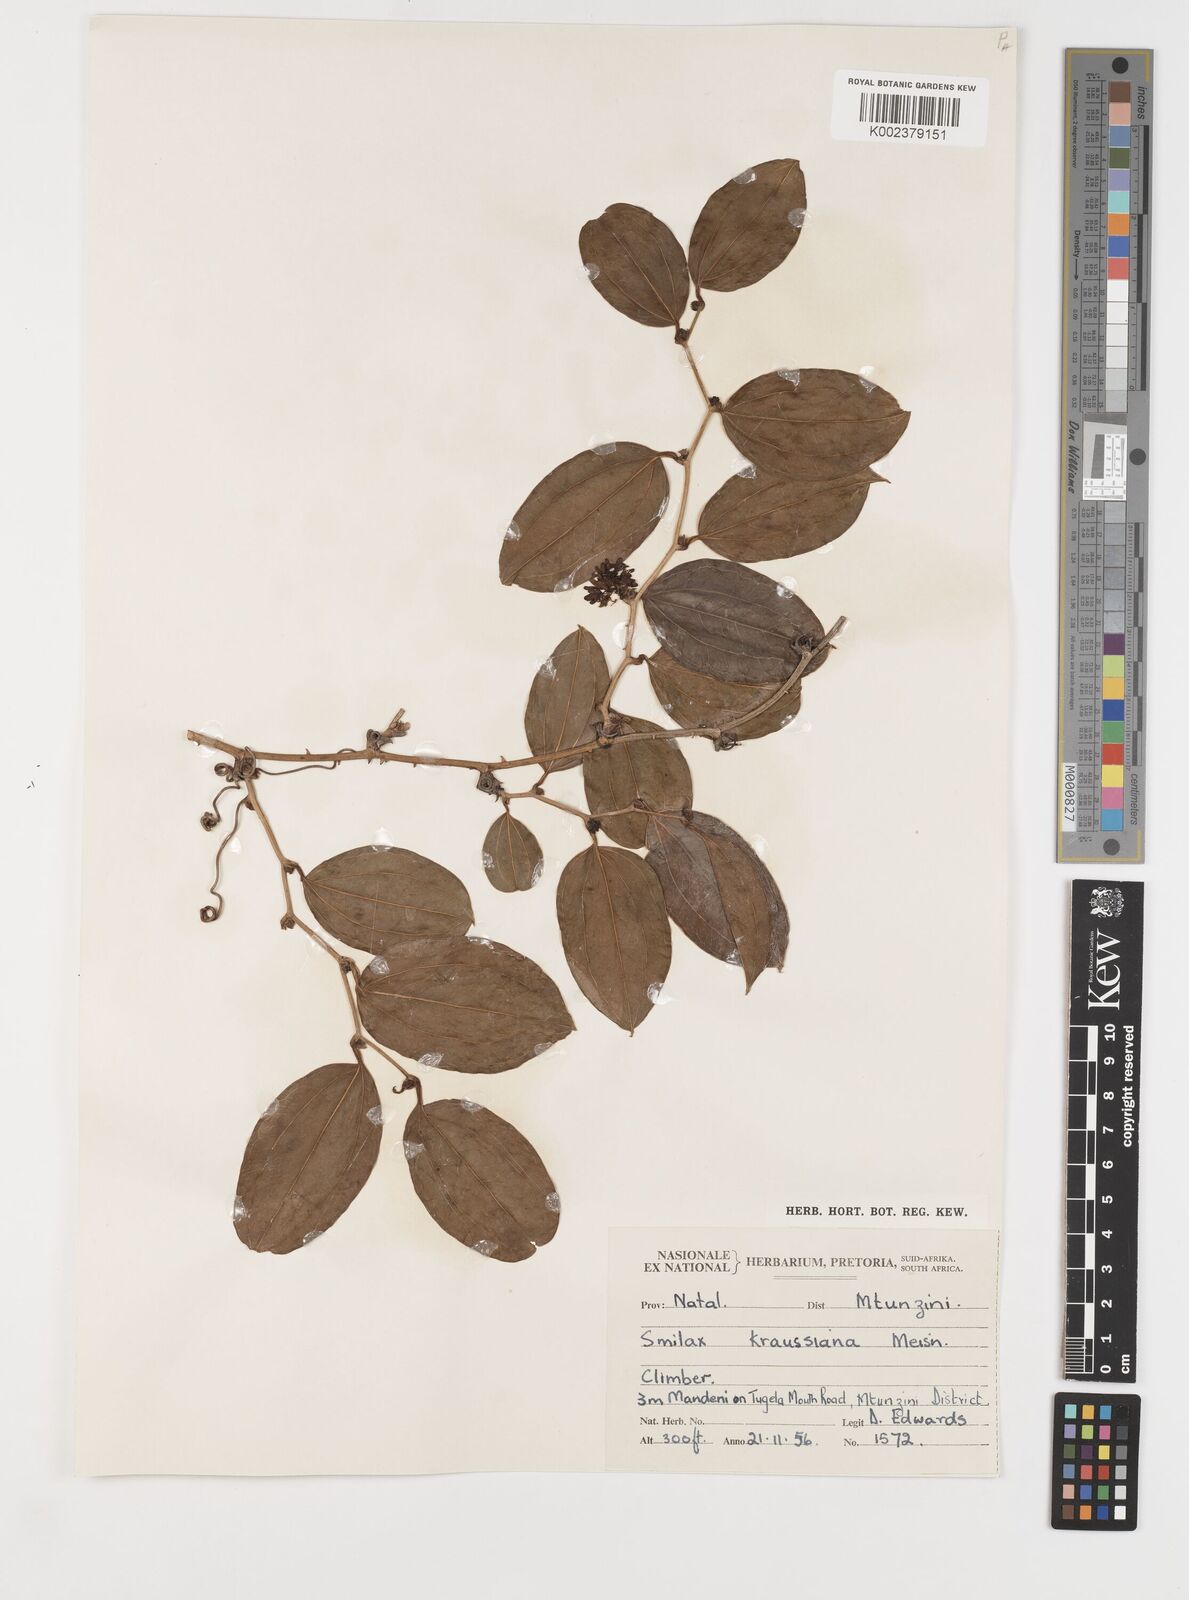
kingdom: Plantae
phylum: Tracheophyta
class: Liliopsida
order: Liliales
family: Smilacaceae
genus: Smilax
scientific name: Smilax anceps
